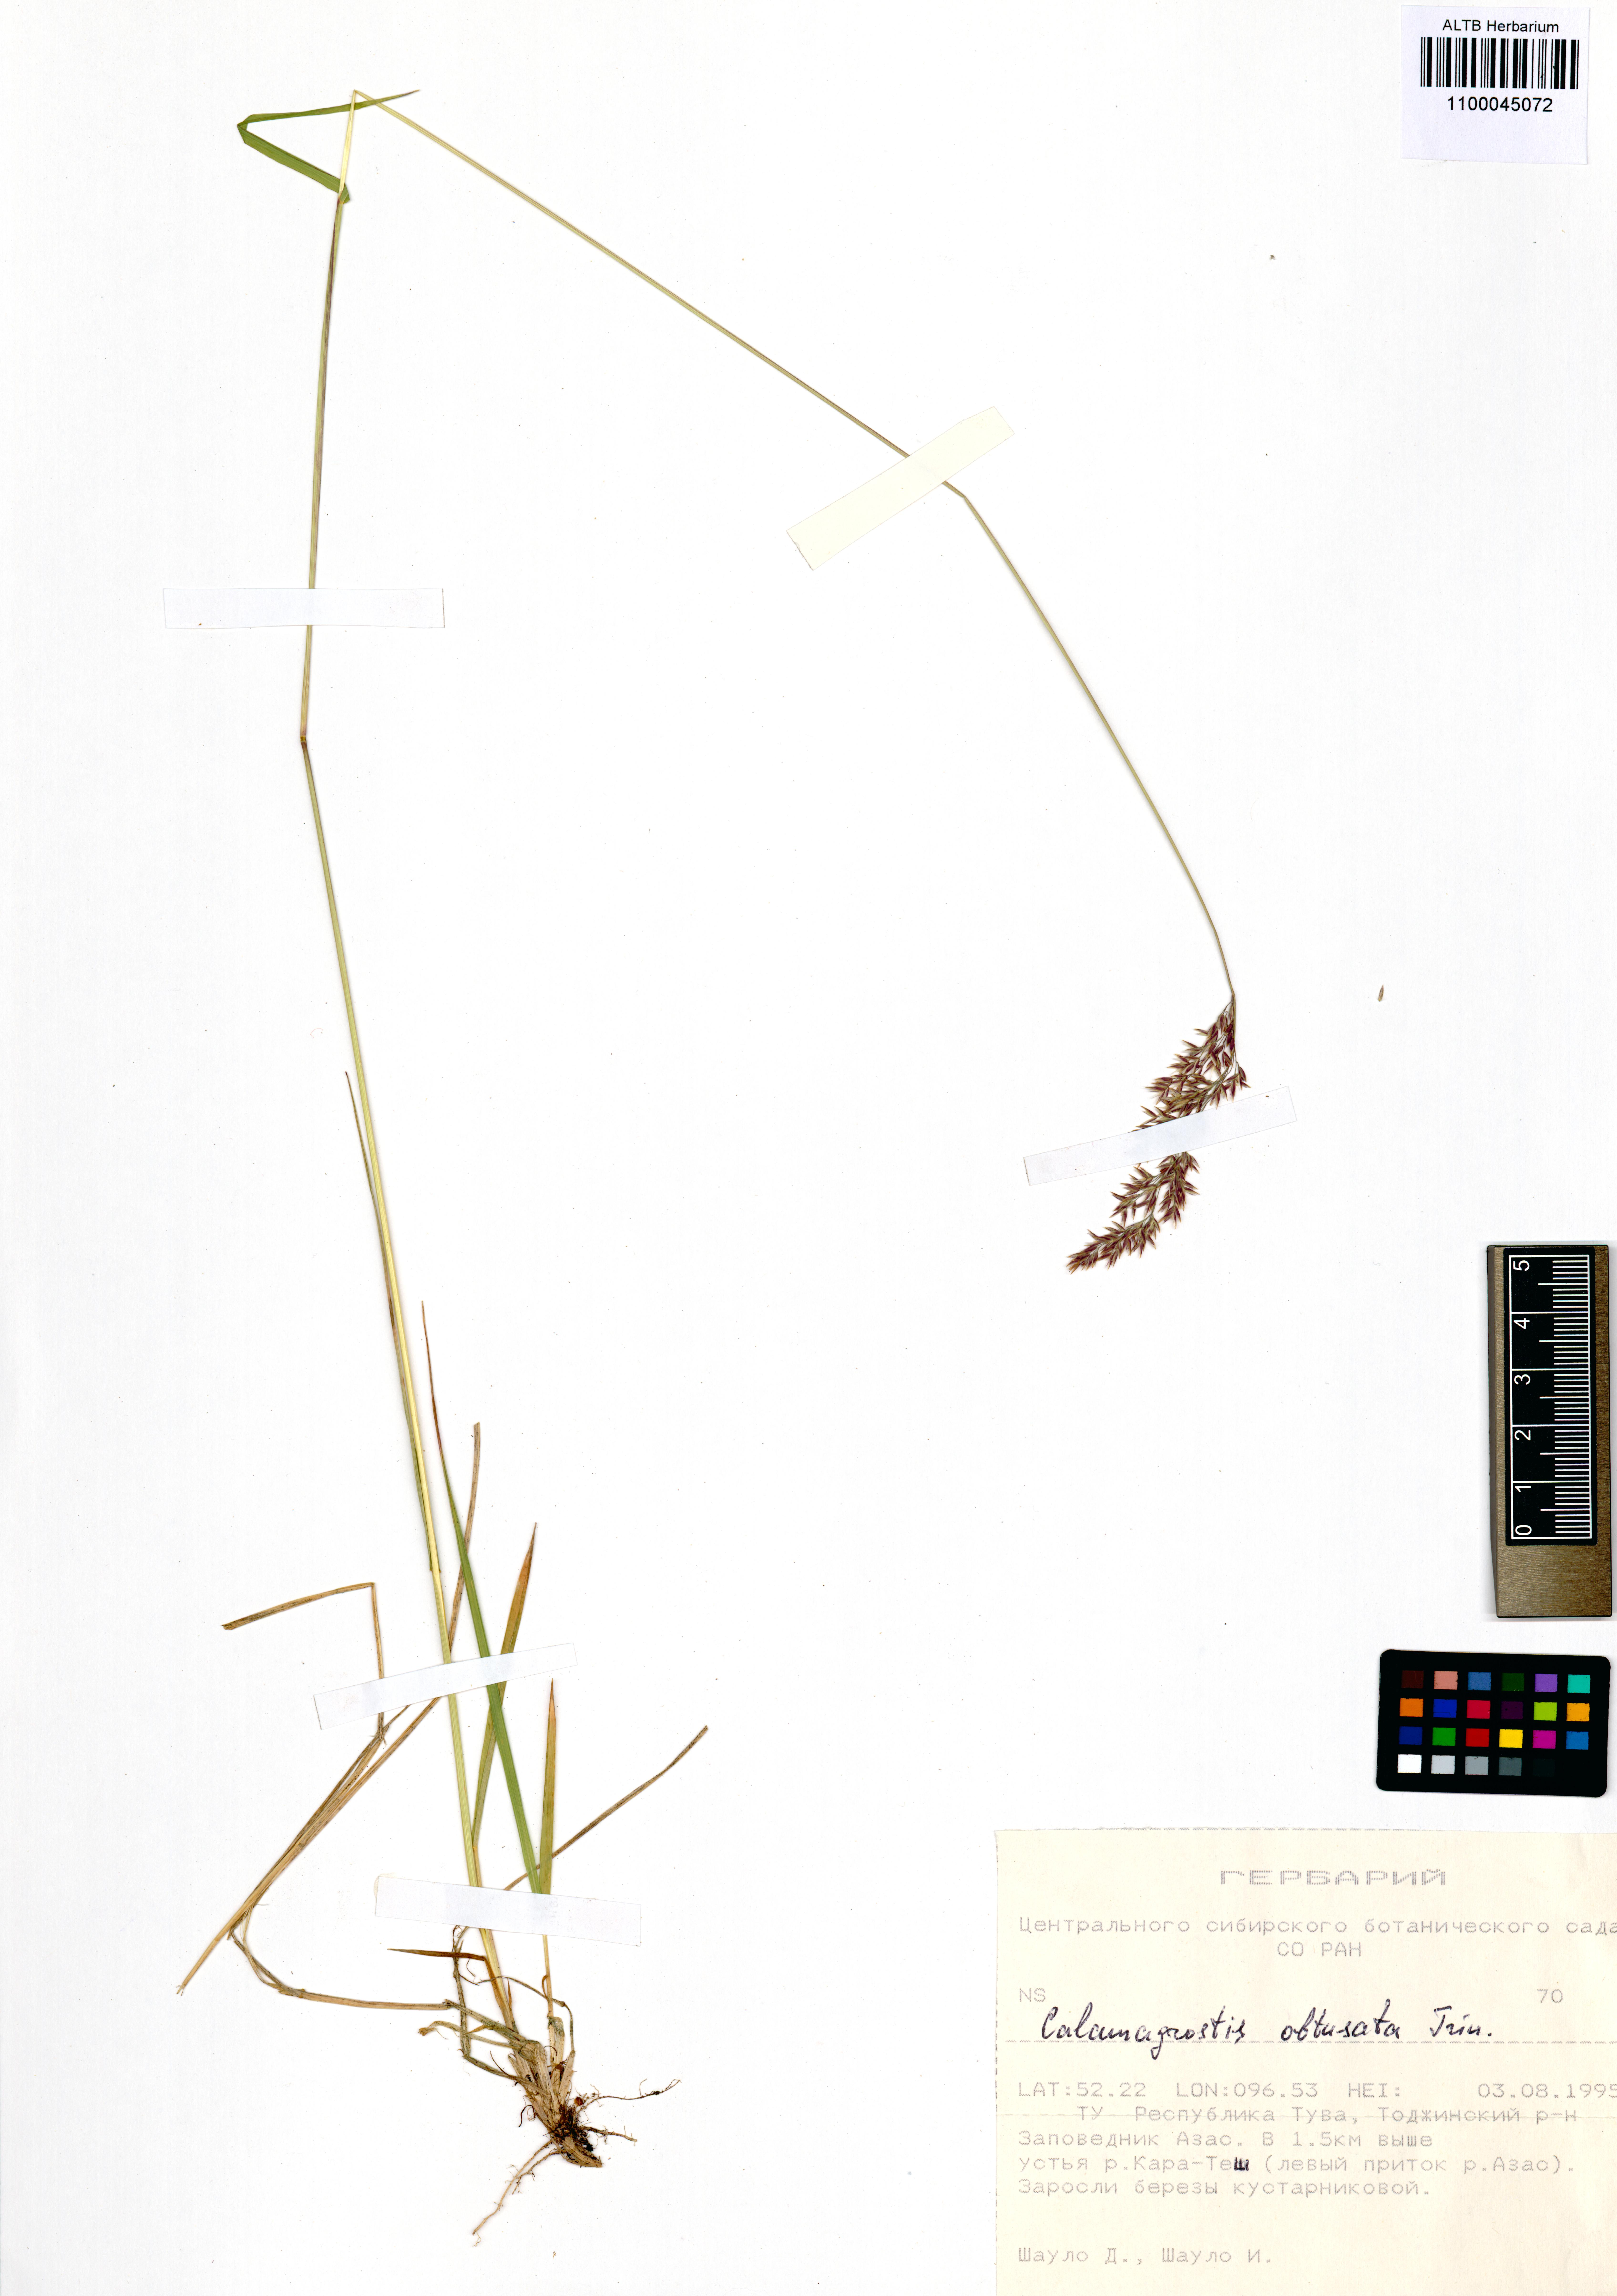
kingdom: Plantae
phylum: Tracheophyta
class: Liliopsida
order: Poales
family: Poaceae
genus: Calamagrostis
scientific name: Calamagrostis obtusata
